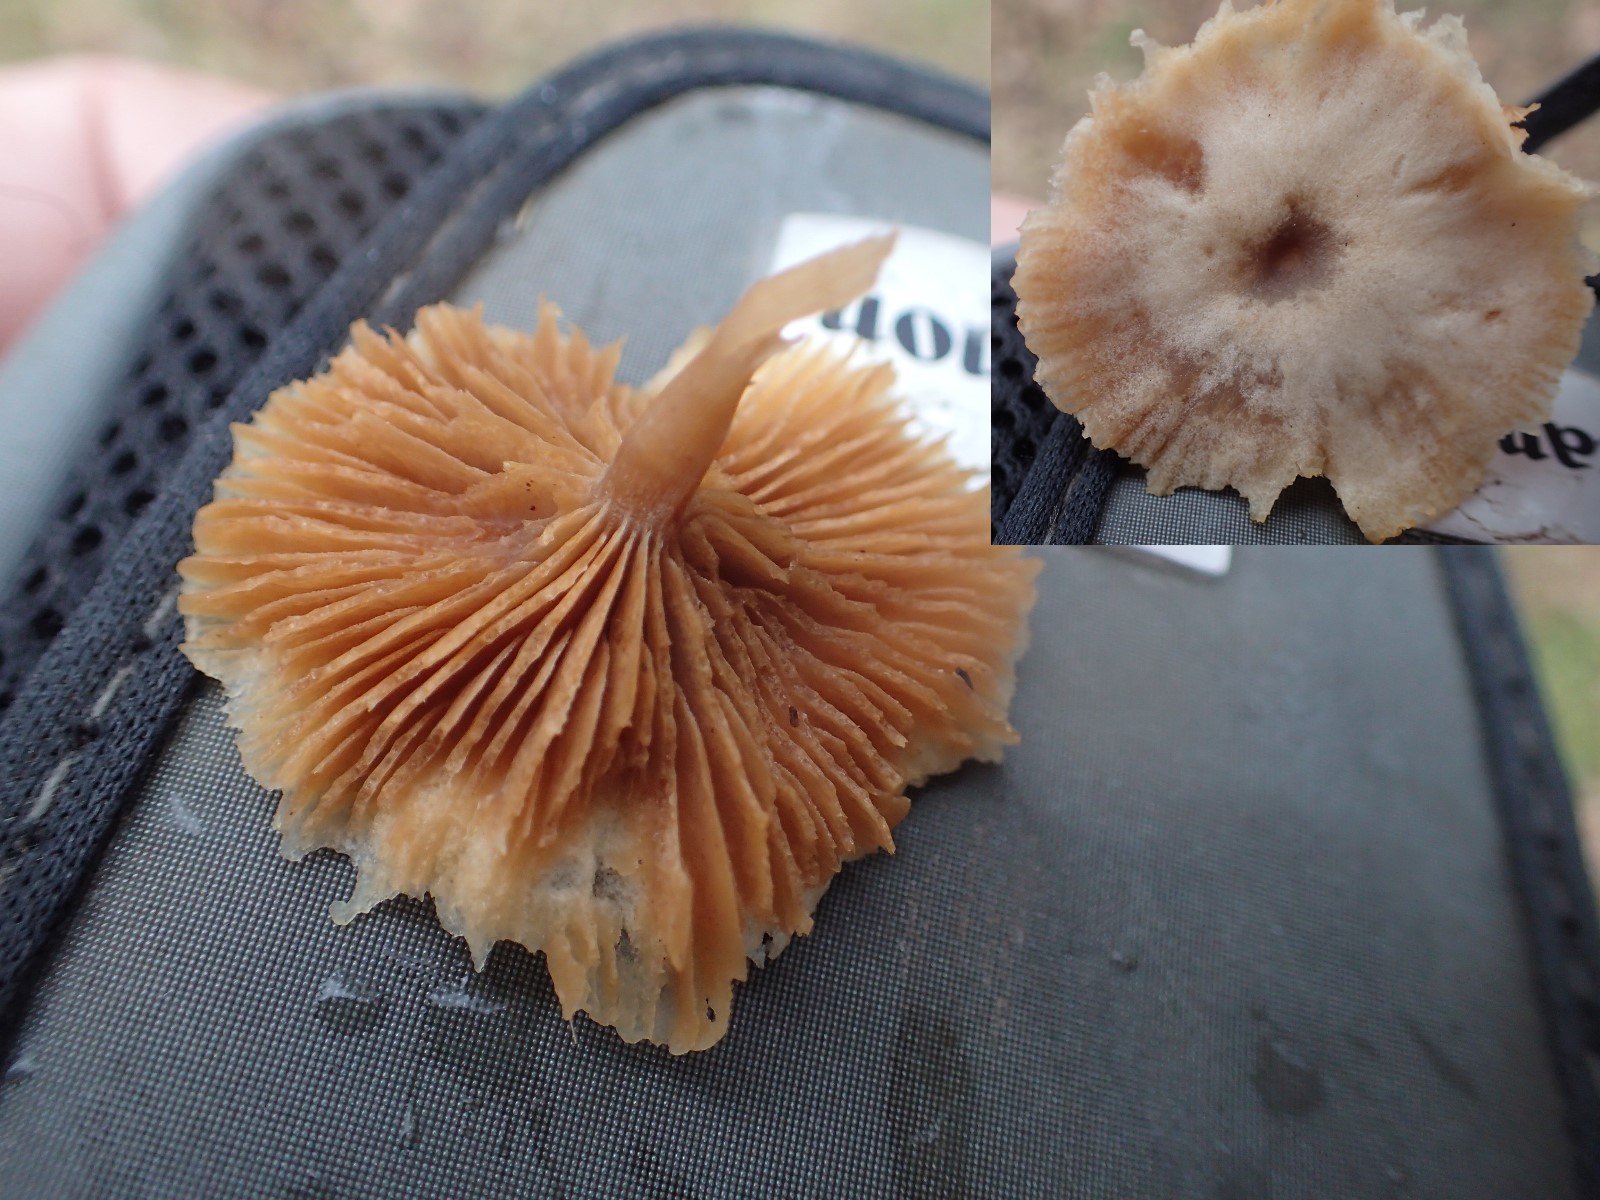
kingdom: Fungi
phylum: Basidiomycota
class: Agaricomycetes
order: Agaricales
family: Tubariaceae
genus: Tubaria
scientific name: Tubaria furfuracea
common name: kliddet fnughat
